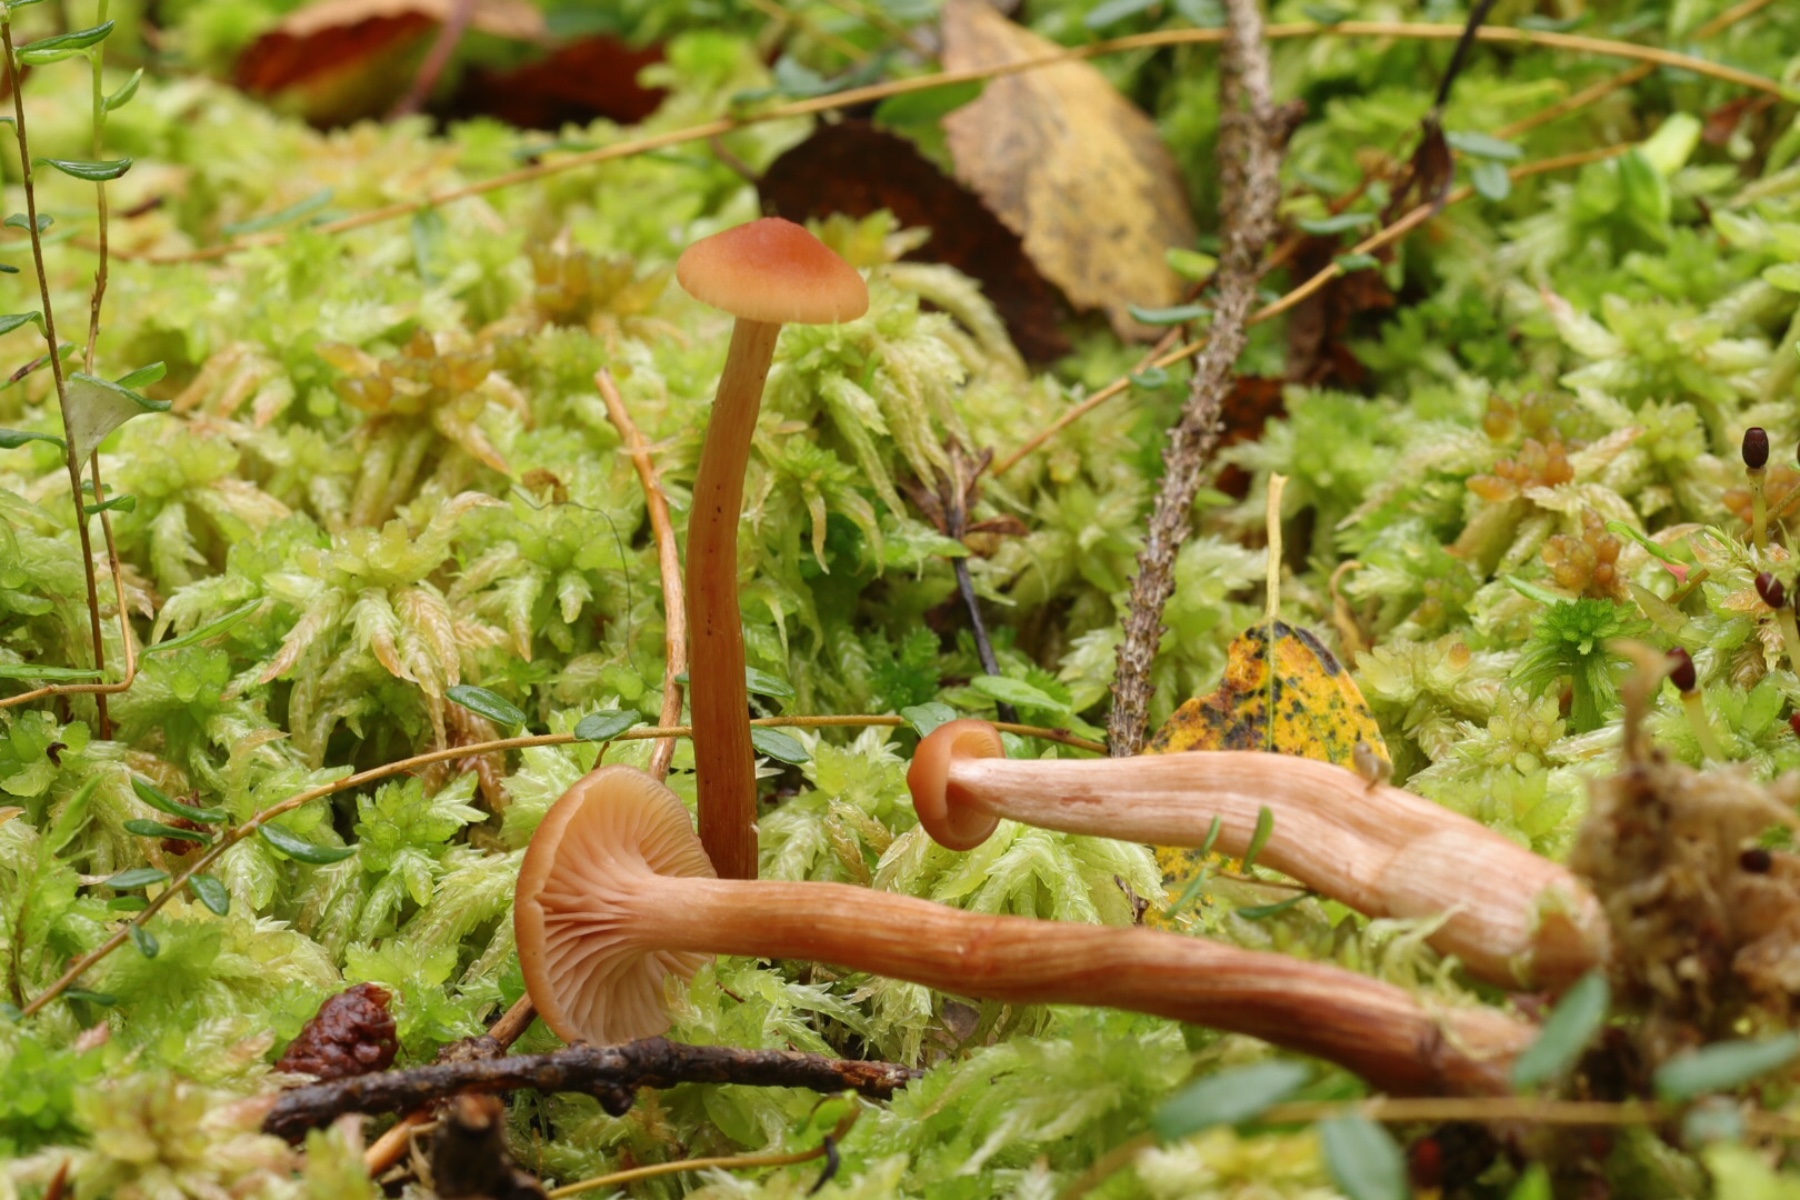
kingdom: Fungi
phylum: Basidiomycota
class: Agaricomycetes
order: Agaricales
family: Hydnangiaceae
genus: Laccaria
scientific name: Laccaria laccata
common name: rød ametysthat
